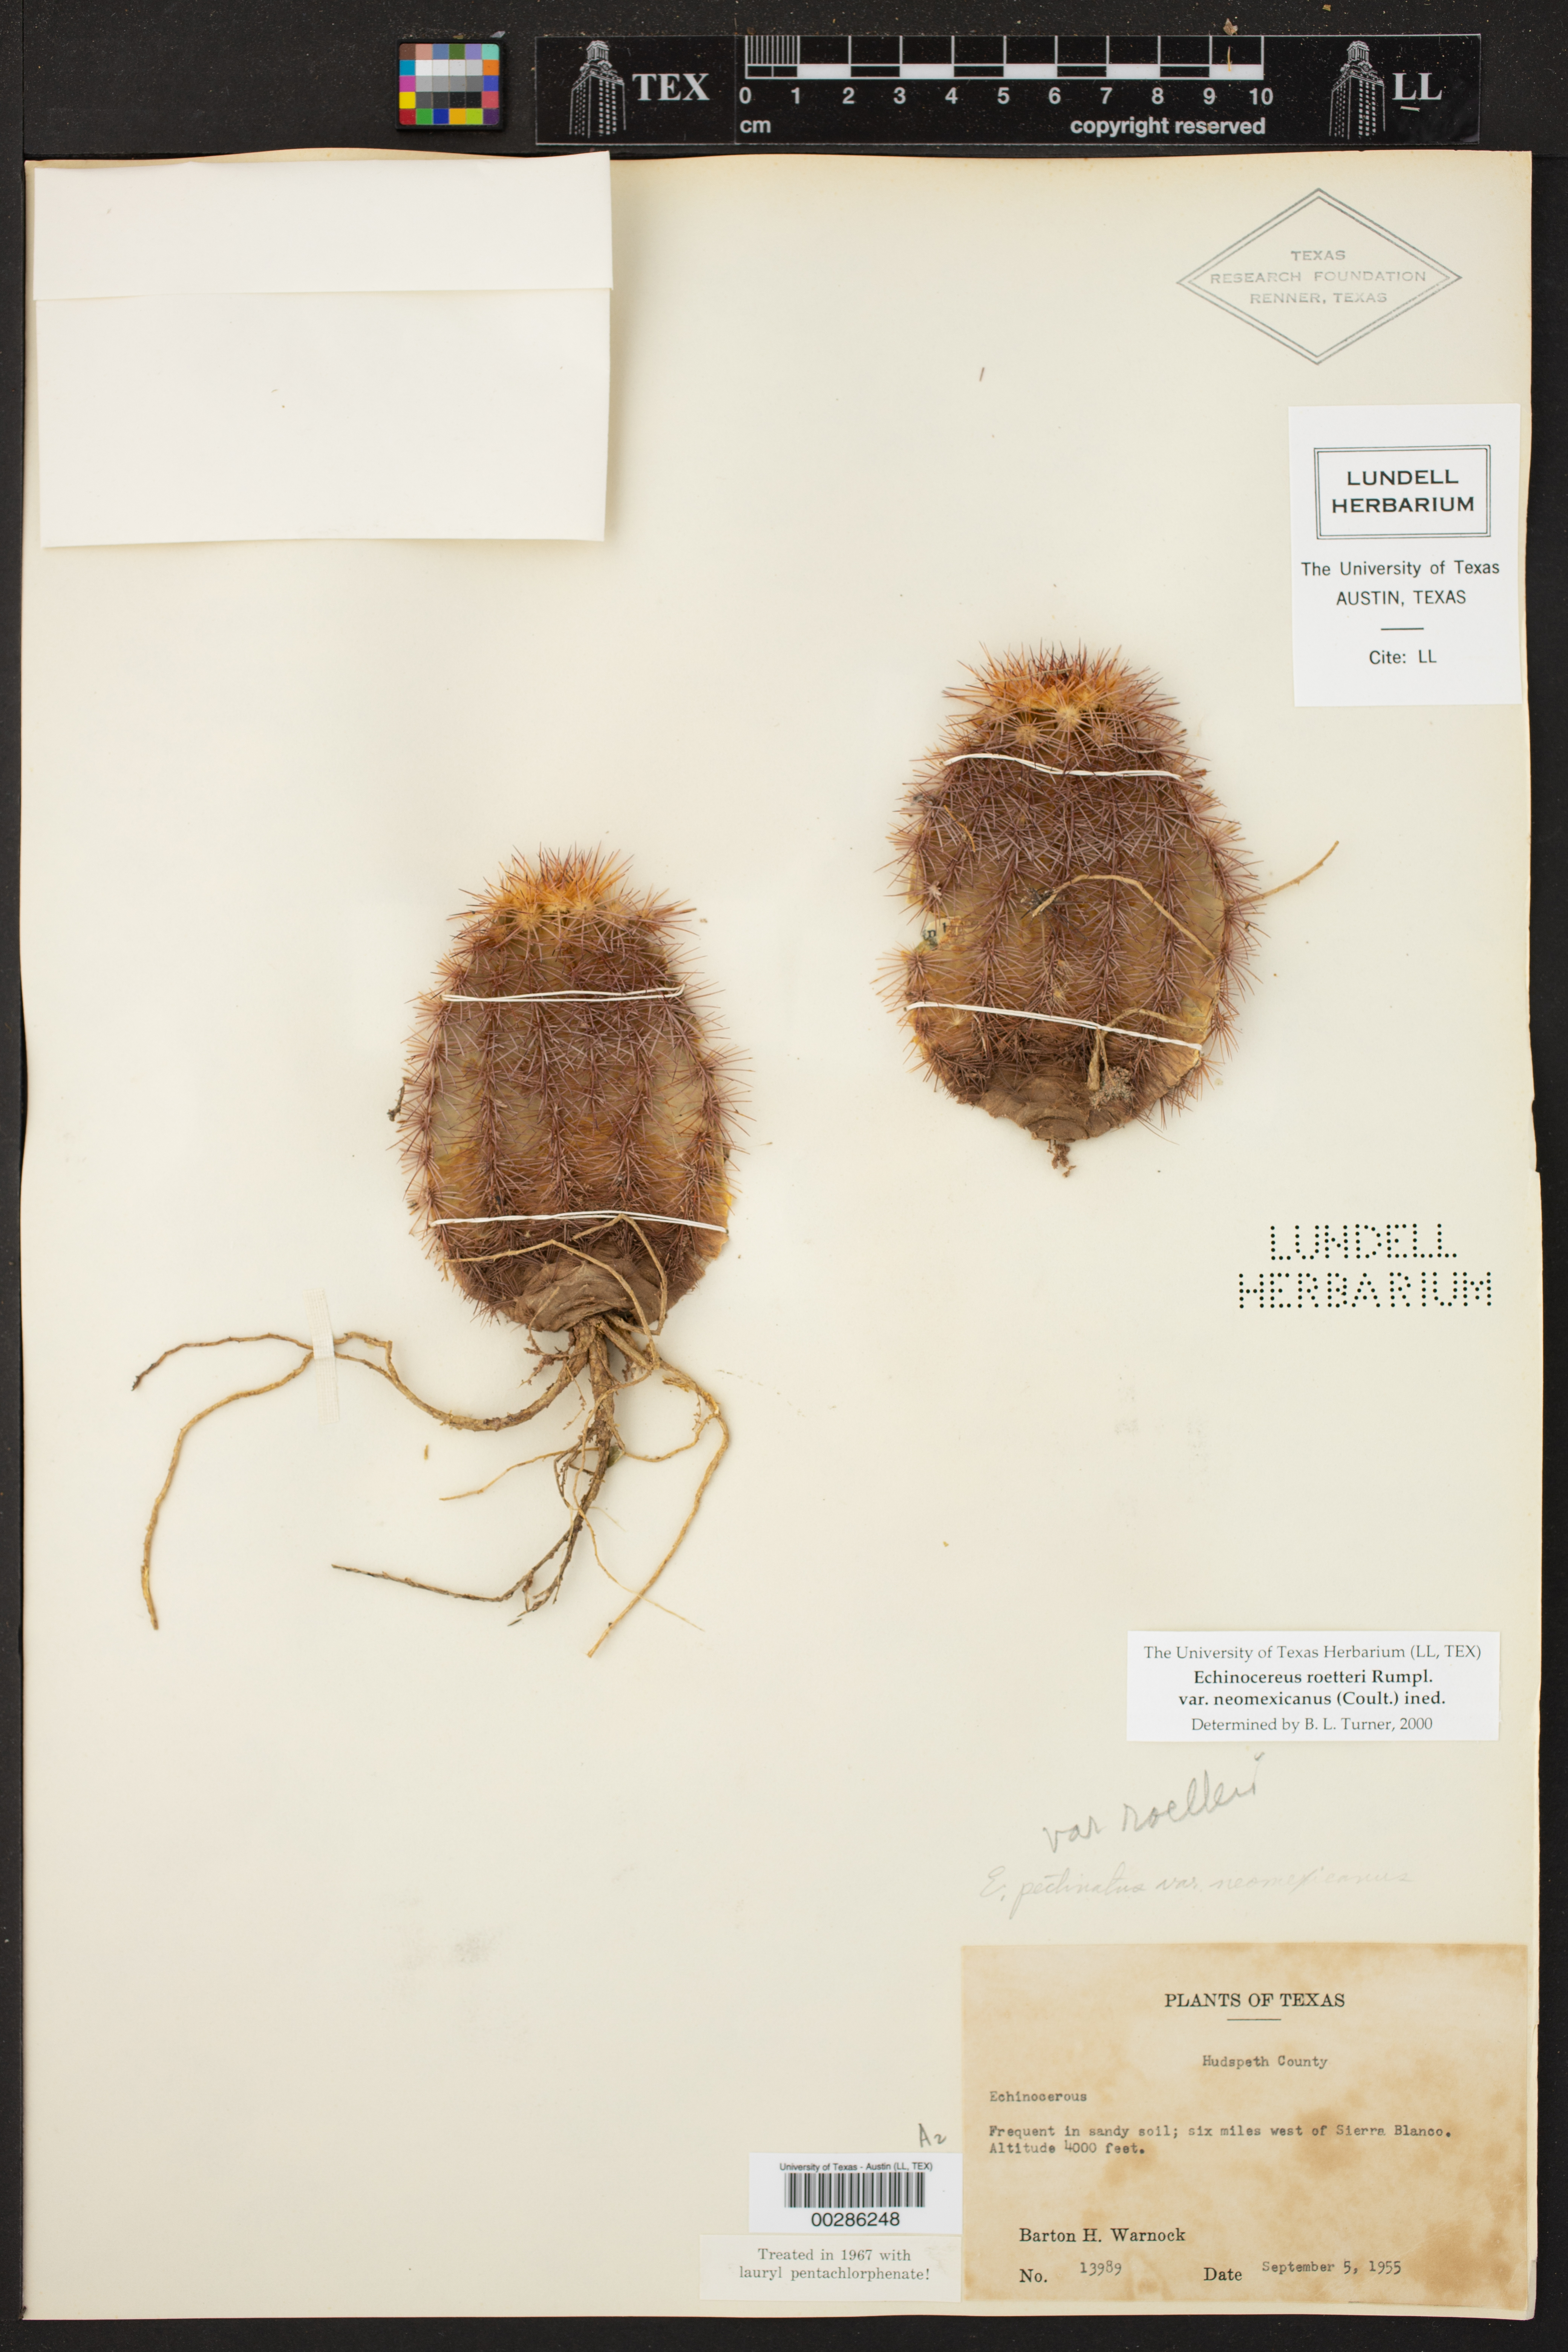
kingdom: Plantae
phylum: Tracheophyta
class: Magnoliopsida
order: Caryophyllales
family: Cactaceae
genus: Echinocereus
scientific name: Echinocereus reichenbachii
